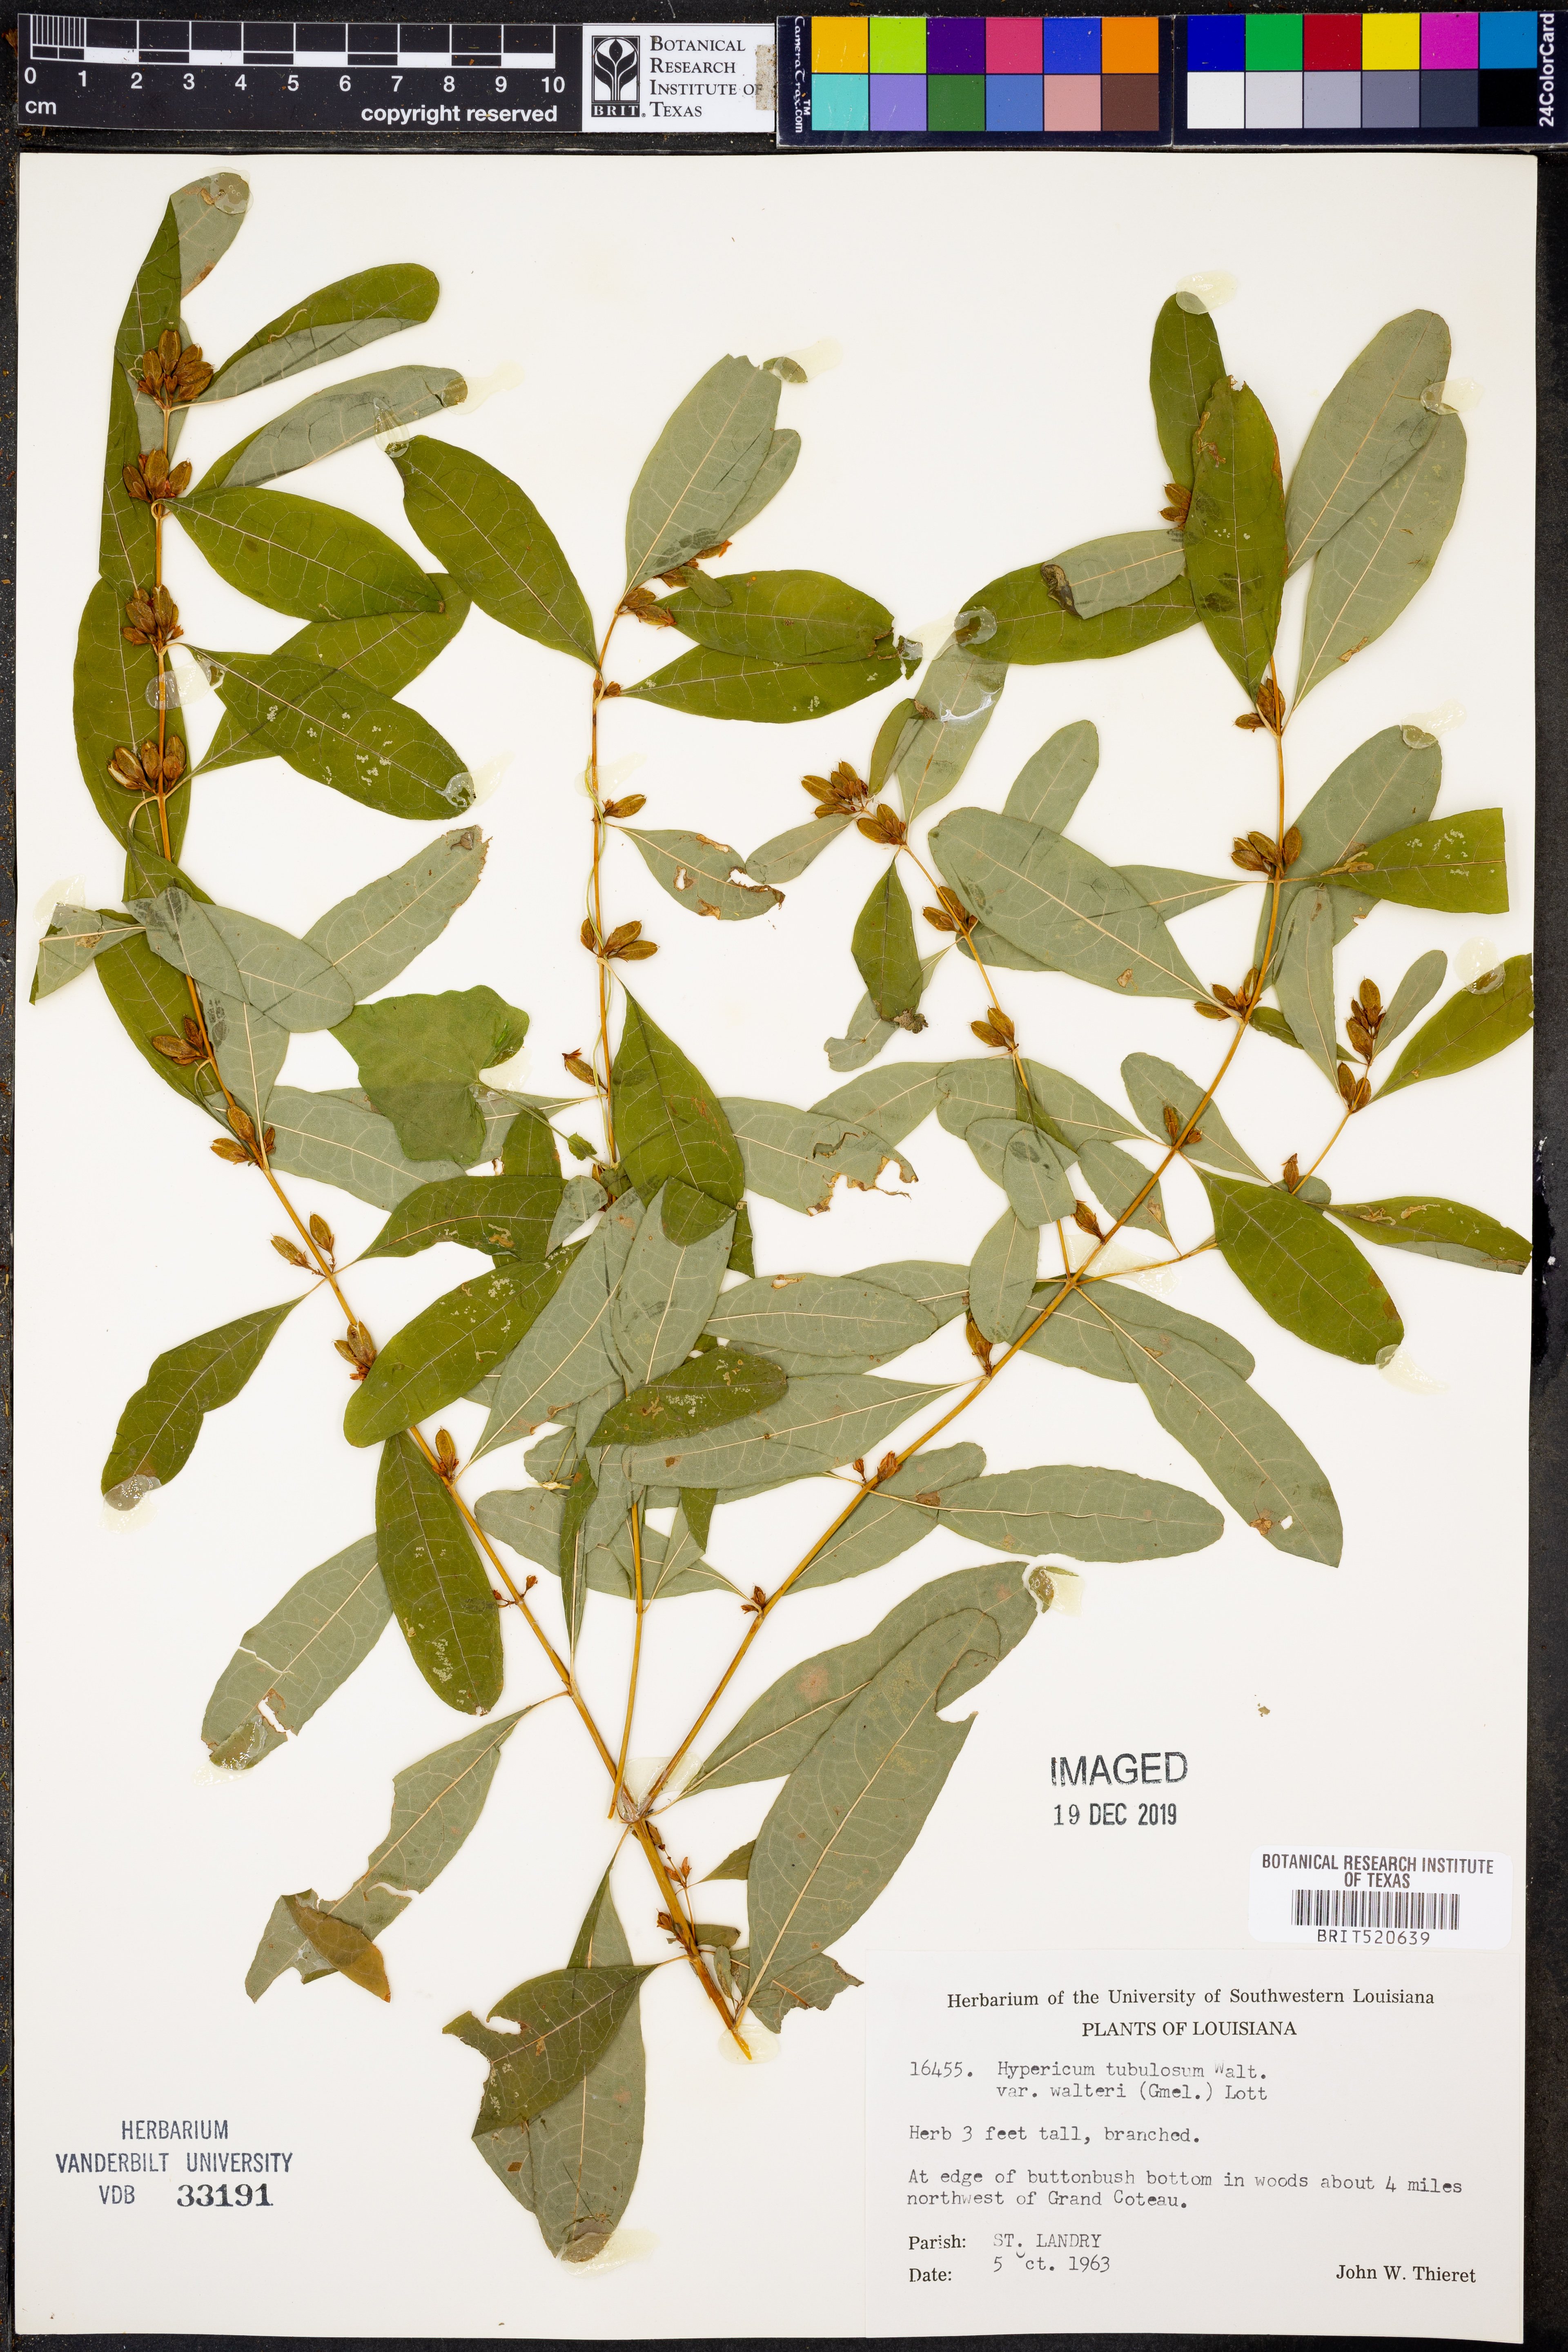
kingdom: Plantae
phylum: Tracheophyta
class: Magnoliopsida
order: Malpighiales
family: Hypericaceae
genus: Triadenum
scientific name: Triadenum walteri
